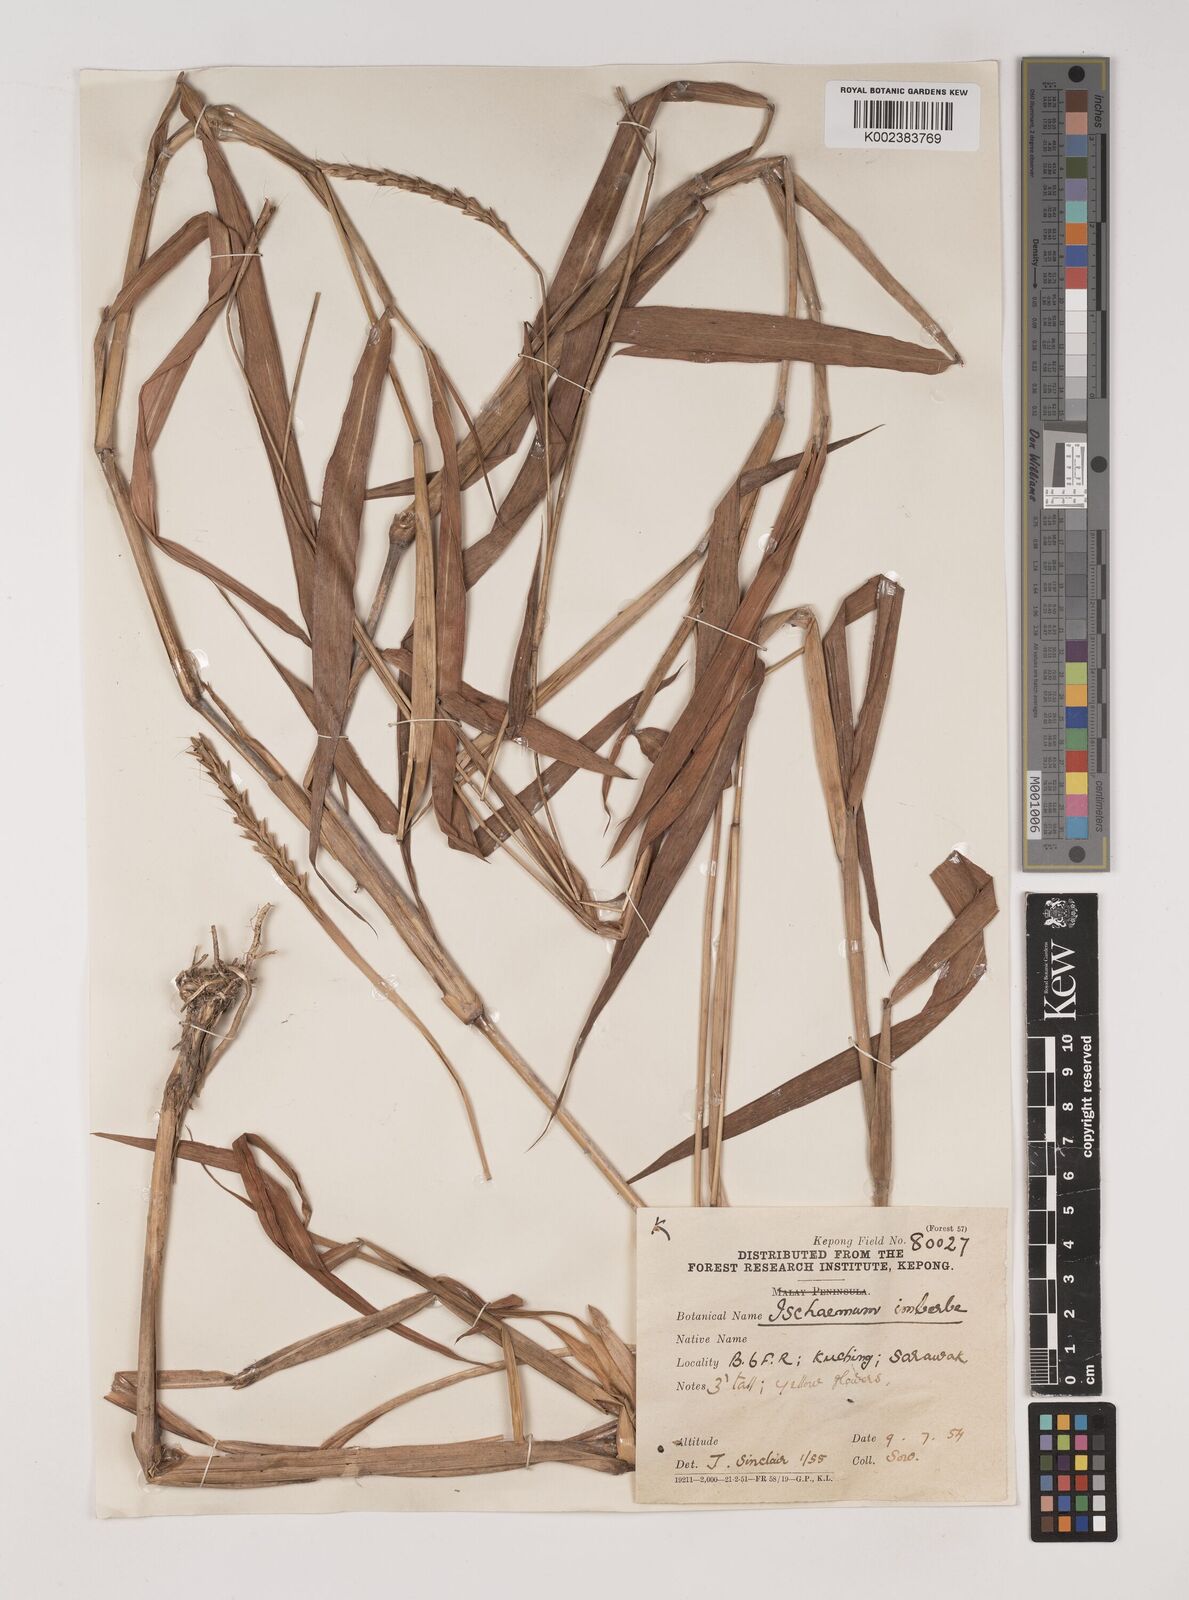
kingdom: Plantae
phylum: Tracheophyta
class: Liliopsida
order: Poales
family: Poaceae
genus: Polytrias
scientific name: Polytrias indica
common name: Indian murainagrass
